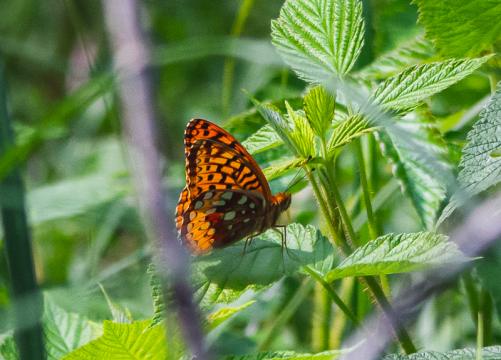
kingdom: Animalia
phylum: Arthropoda
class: Insecta
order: Lepidoptera
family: Nymphalidae
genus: Speyeria
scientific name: Speyeria cybele
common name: Great Spangled Fritillary
